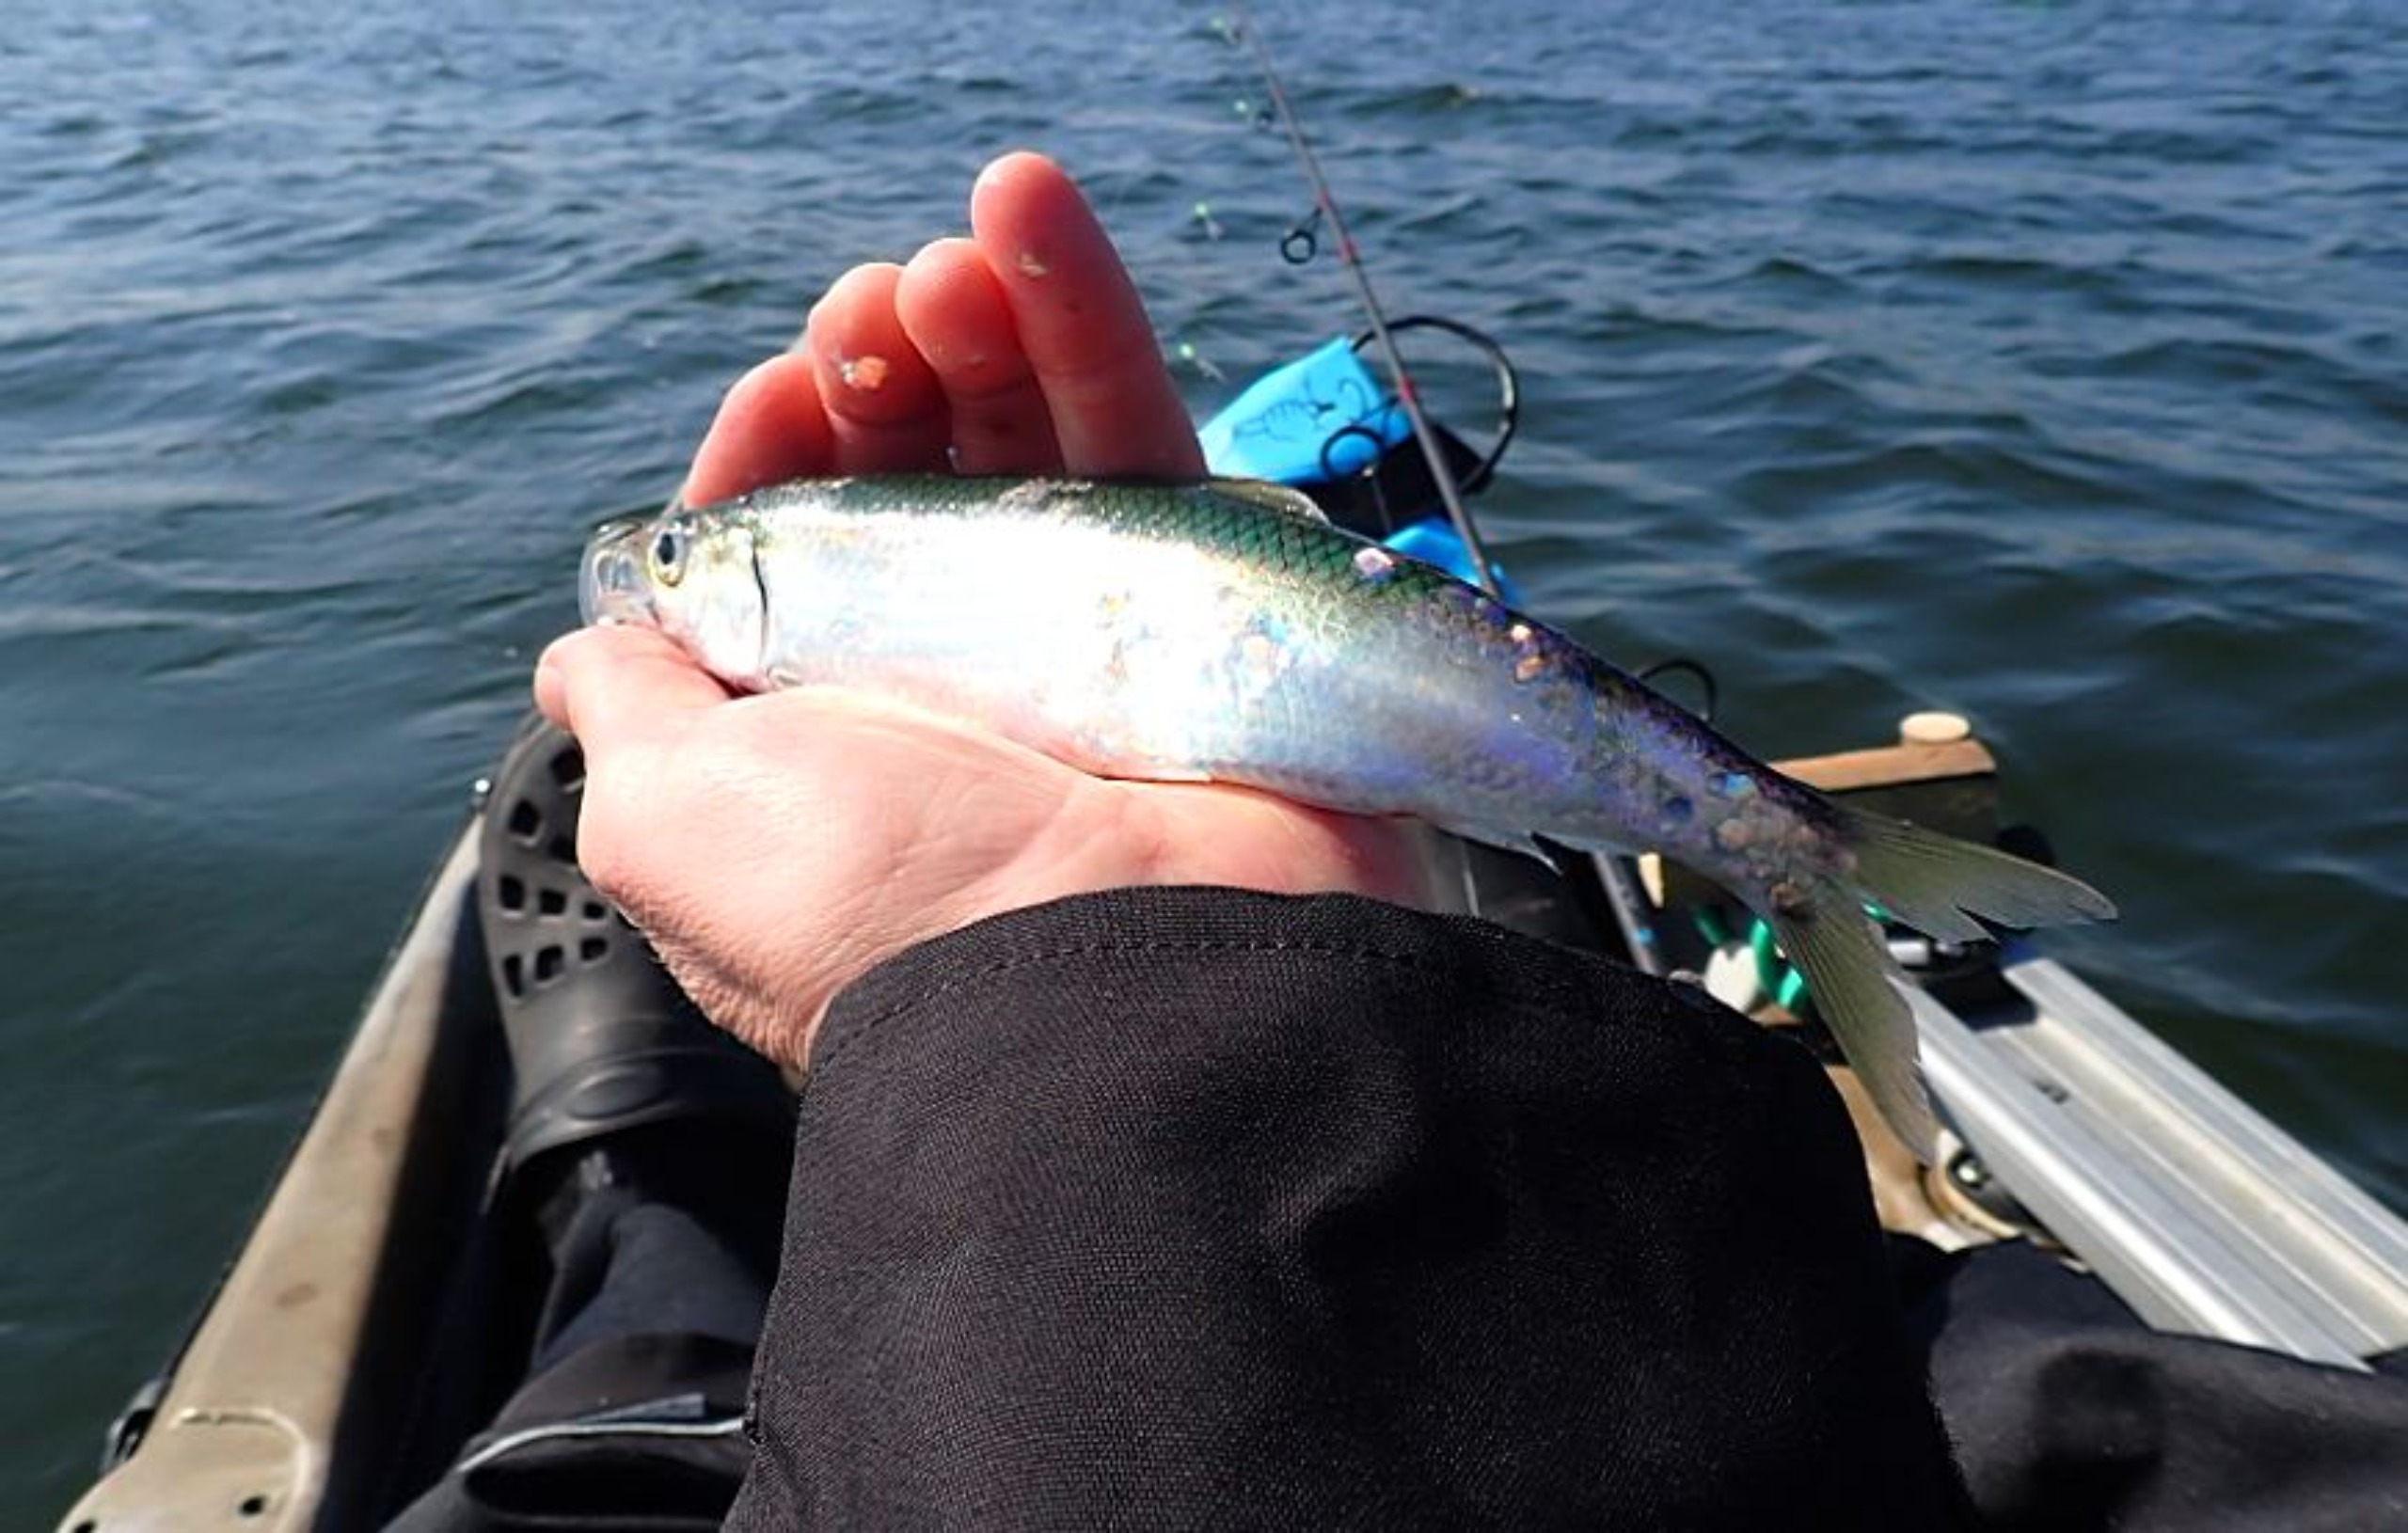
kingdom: Animalia
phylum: Chordata
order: Clupeiformes
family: Clupeidae
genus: Clupea
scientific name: Clupea harengus
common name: Sild
